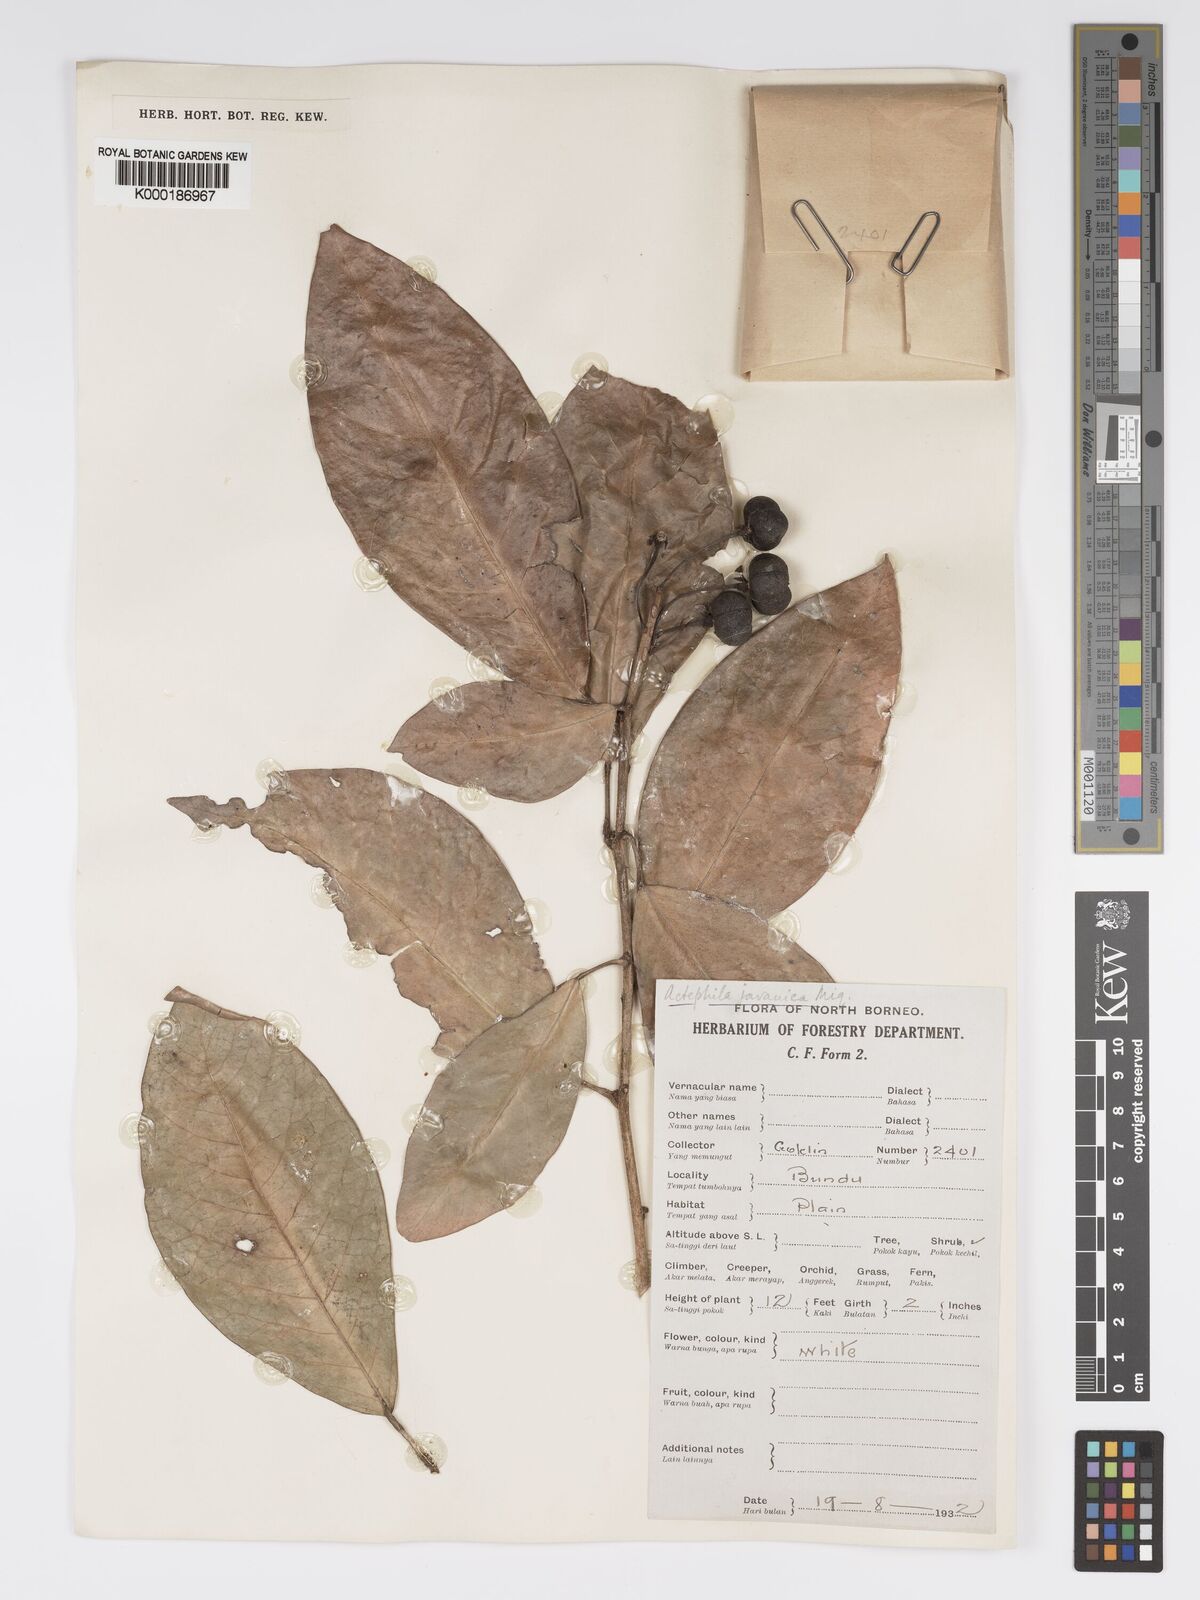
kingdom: Plantae
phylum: Tracheophyta
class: Magnoliopsida
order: Malpighiales
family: Phyllanthaceae
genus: Actephila
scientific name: Actephila
